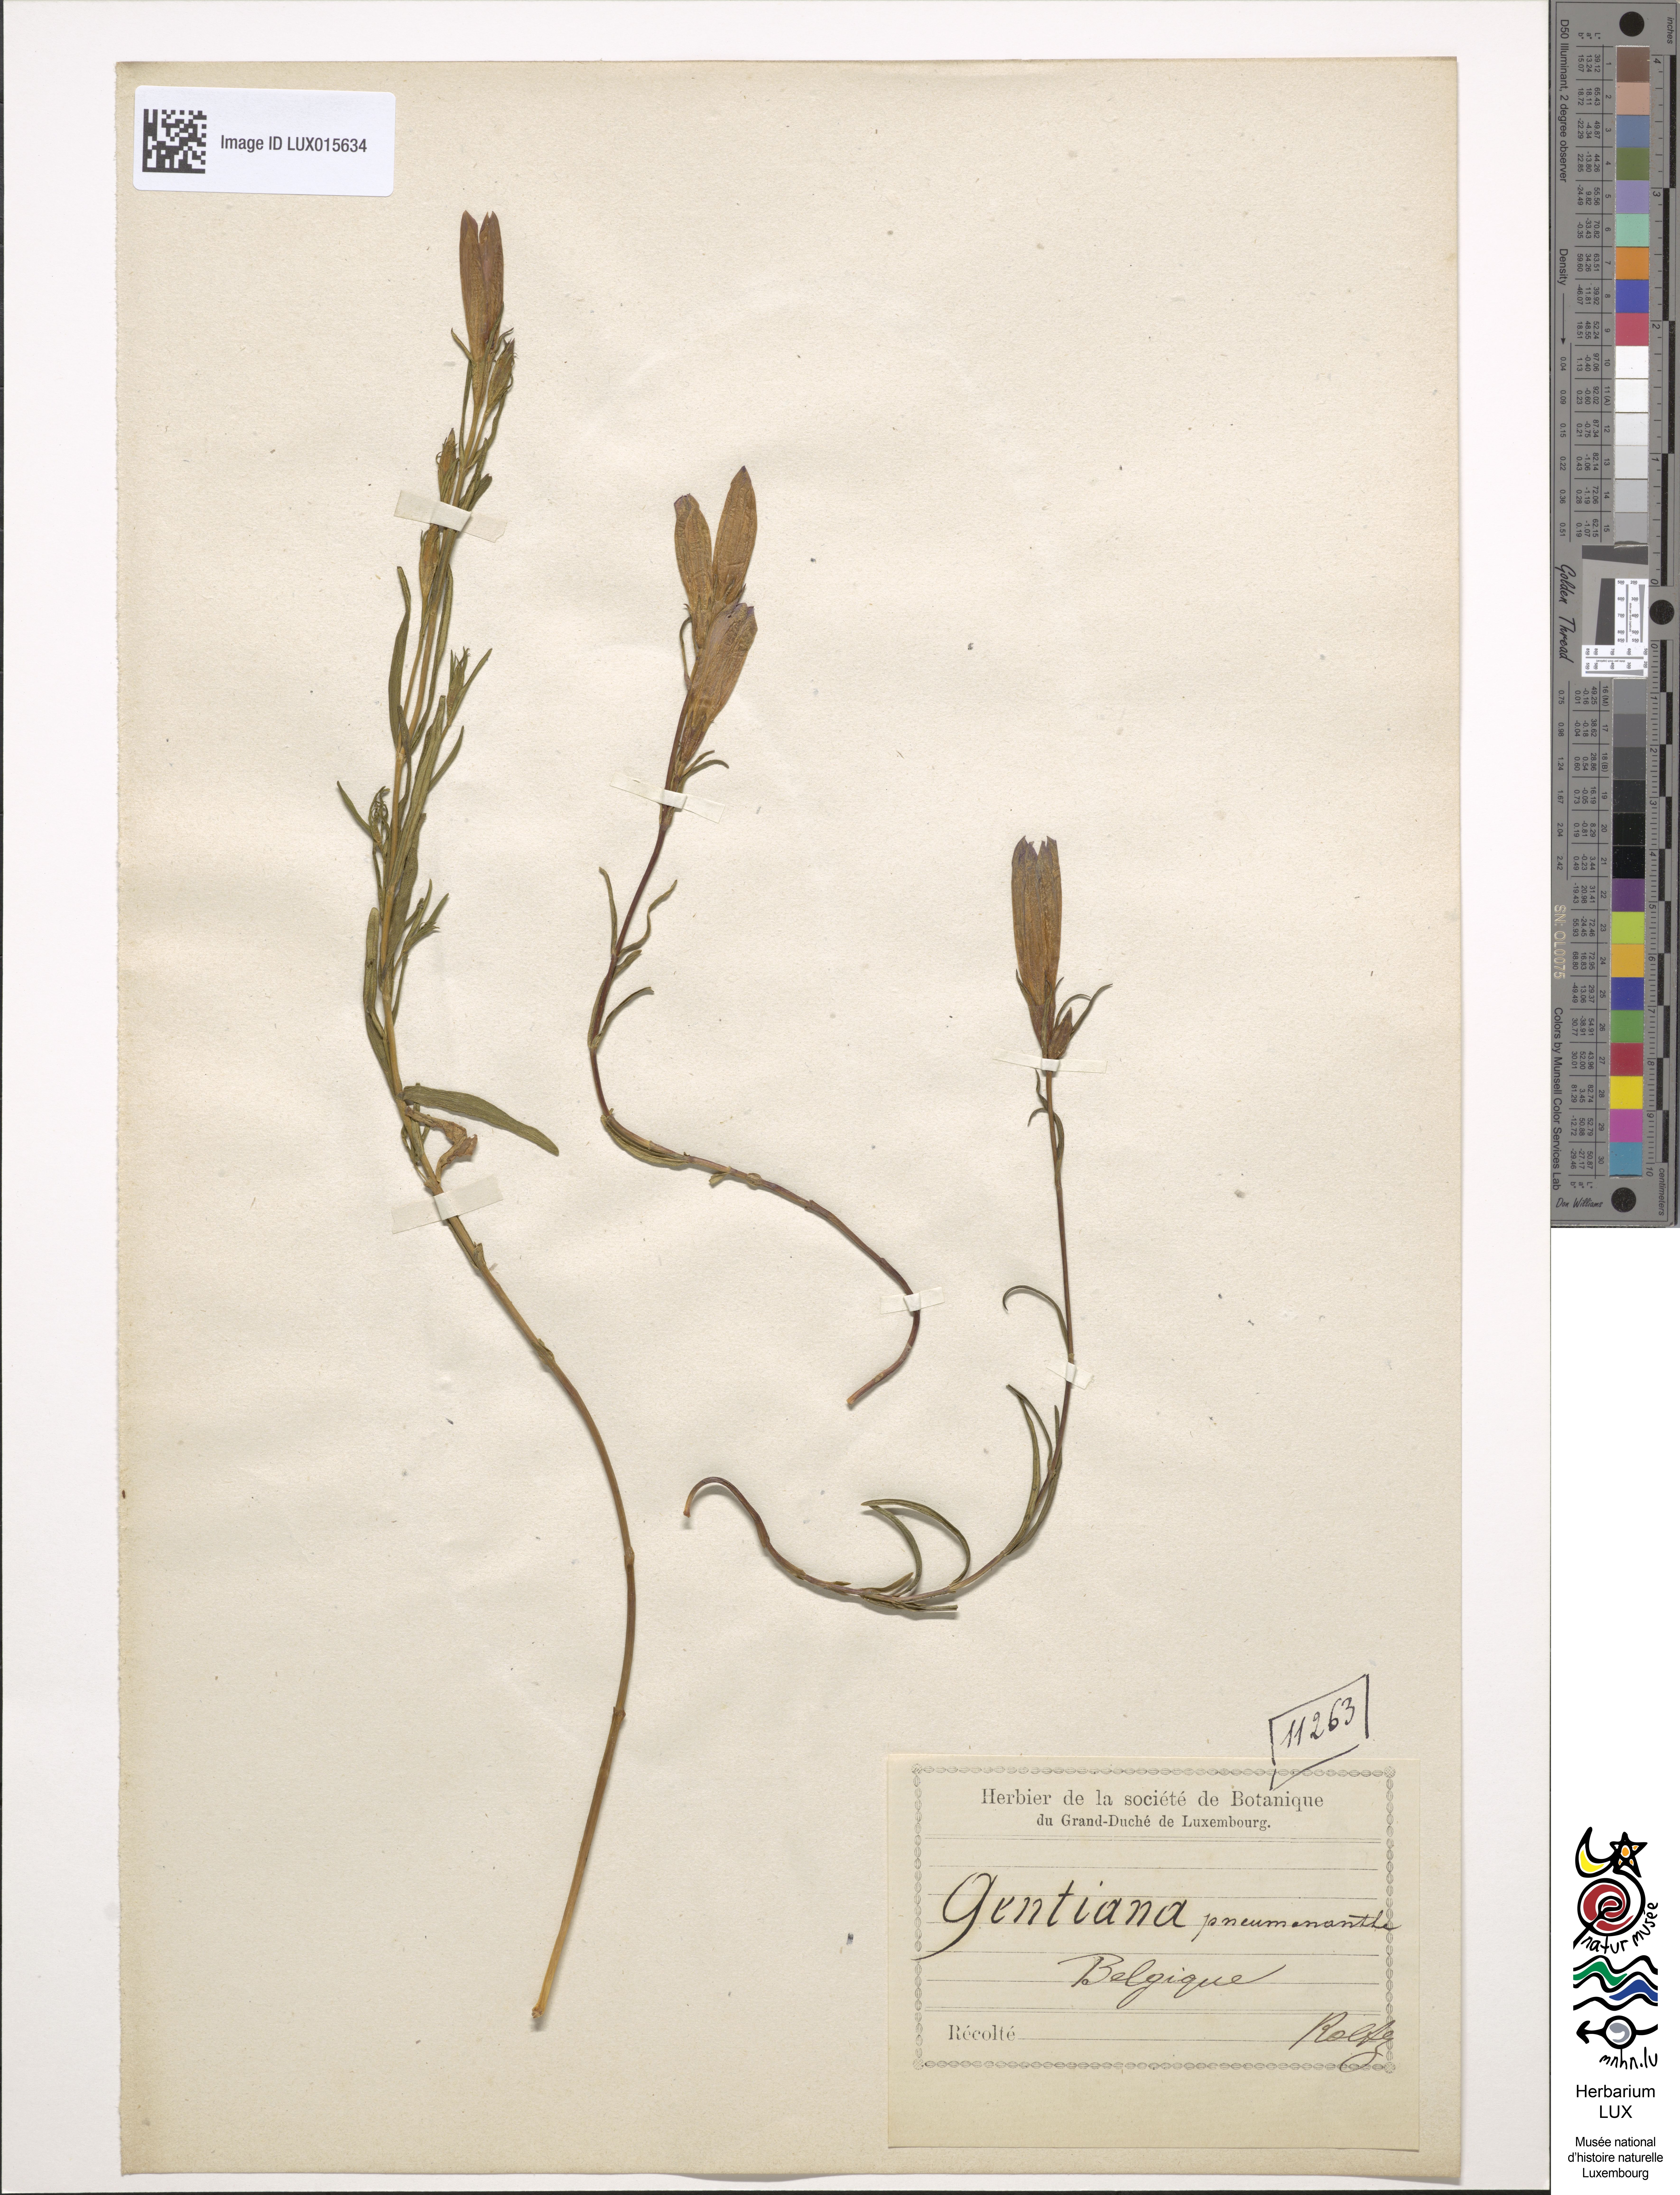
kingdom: Plantae
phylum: Tracheophyta
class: Magnoliopsida
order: Gentianales
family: Gentianaceae
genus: Gentiana
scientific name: Gentiana pneumonanthe
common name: Marsh gentian
